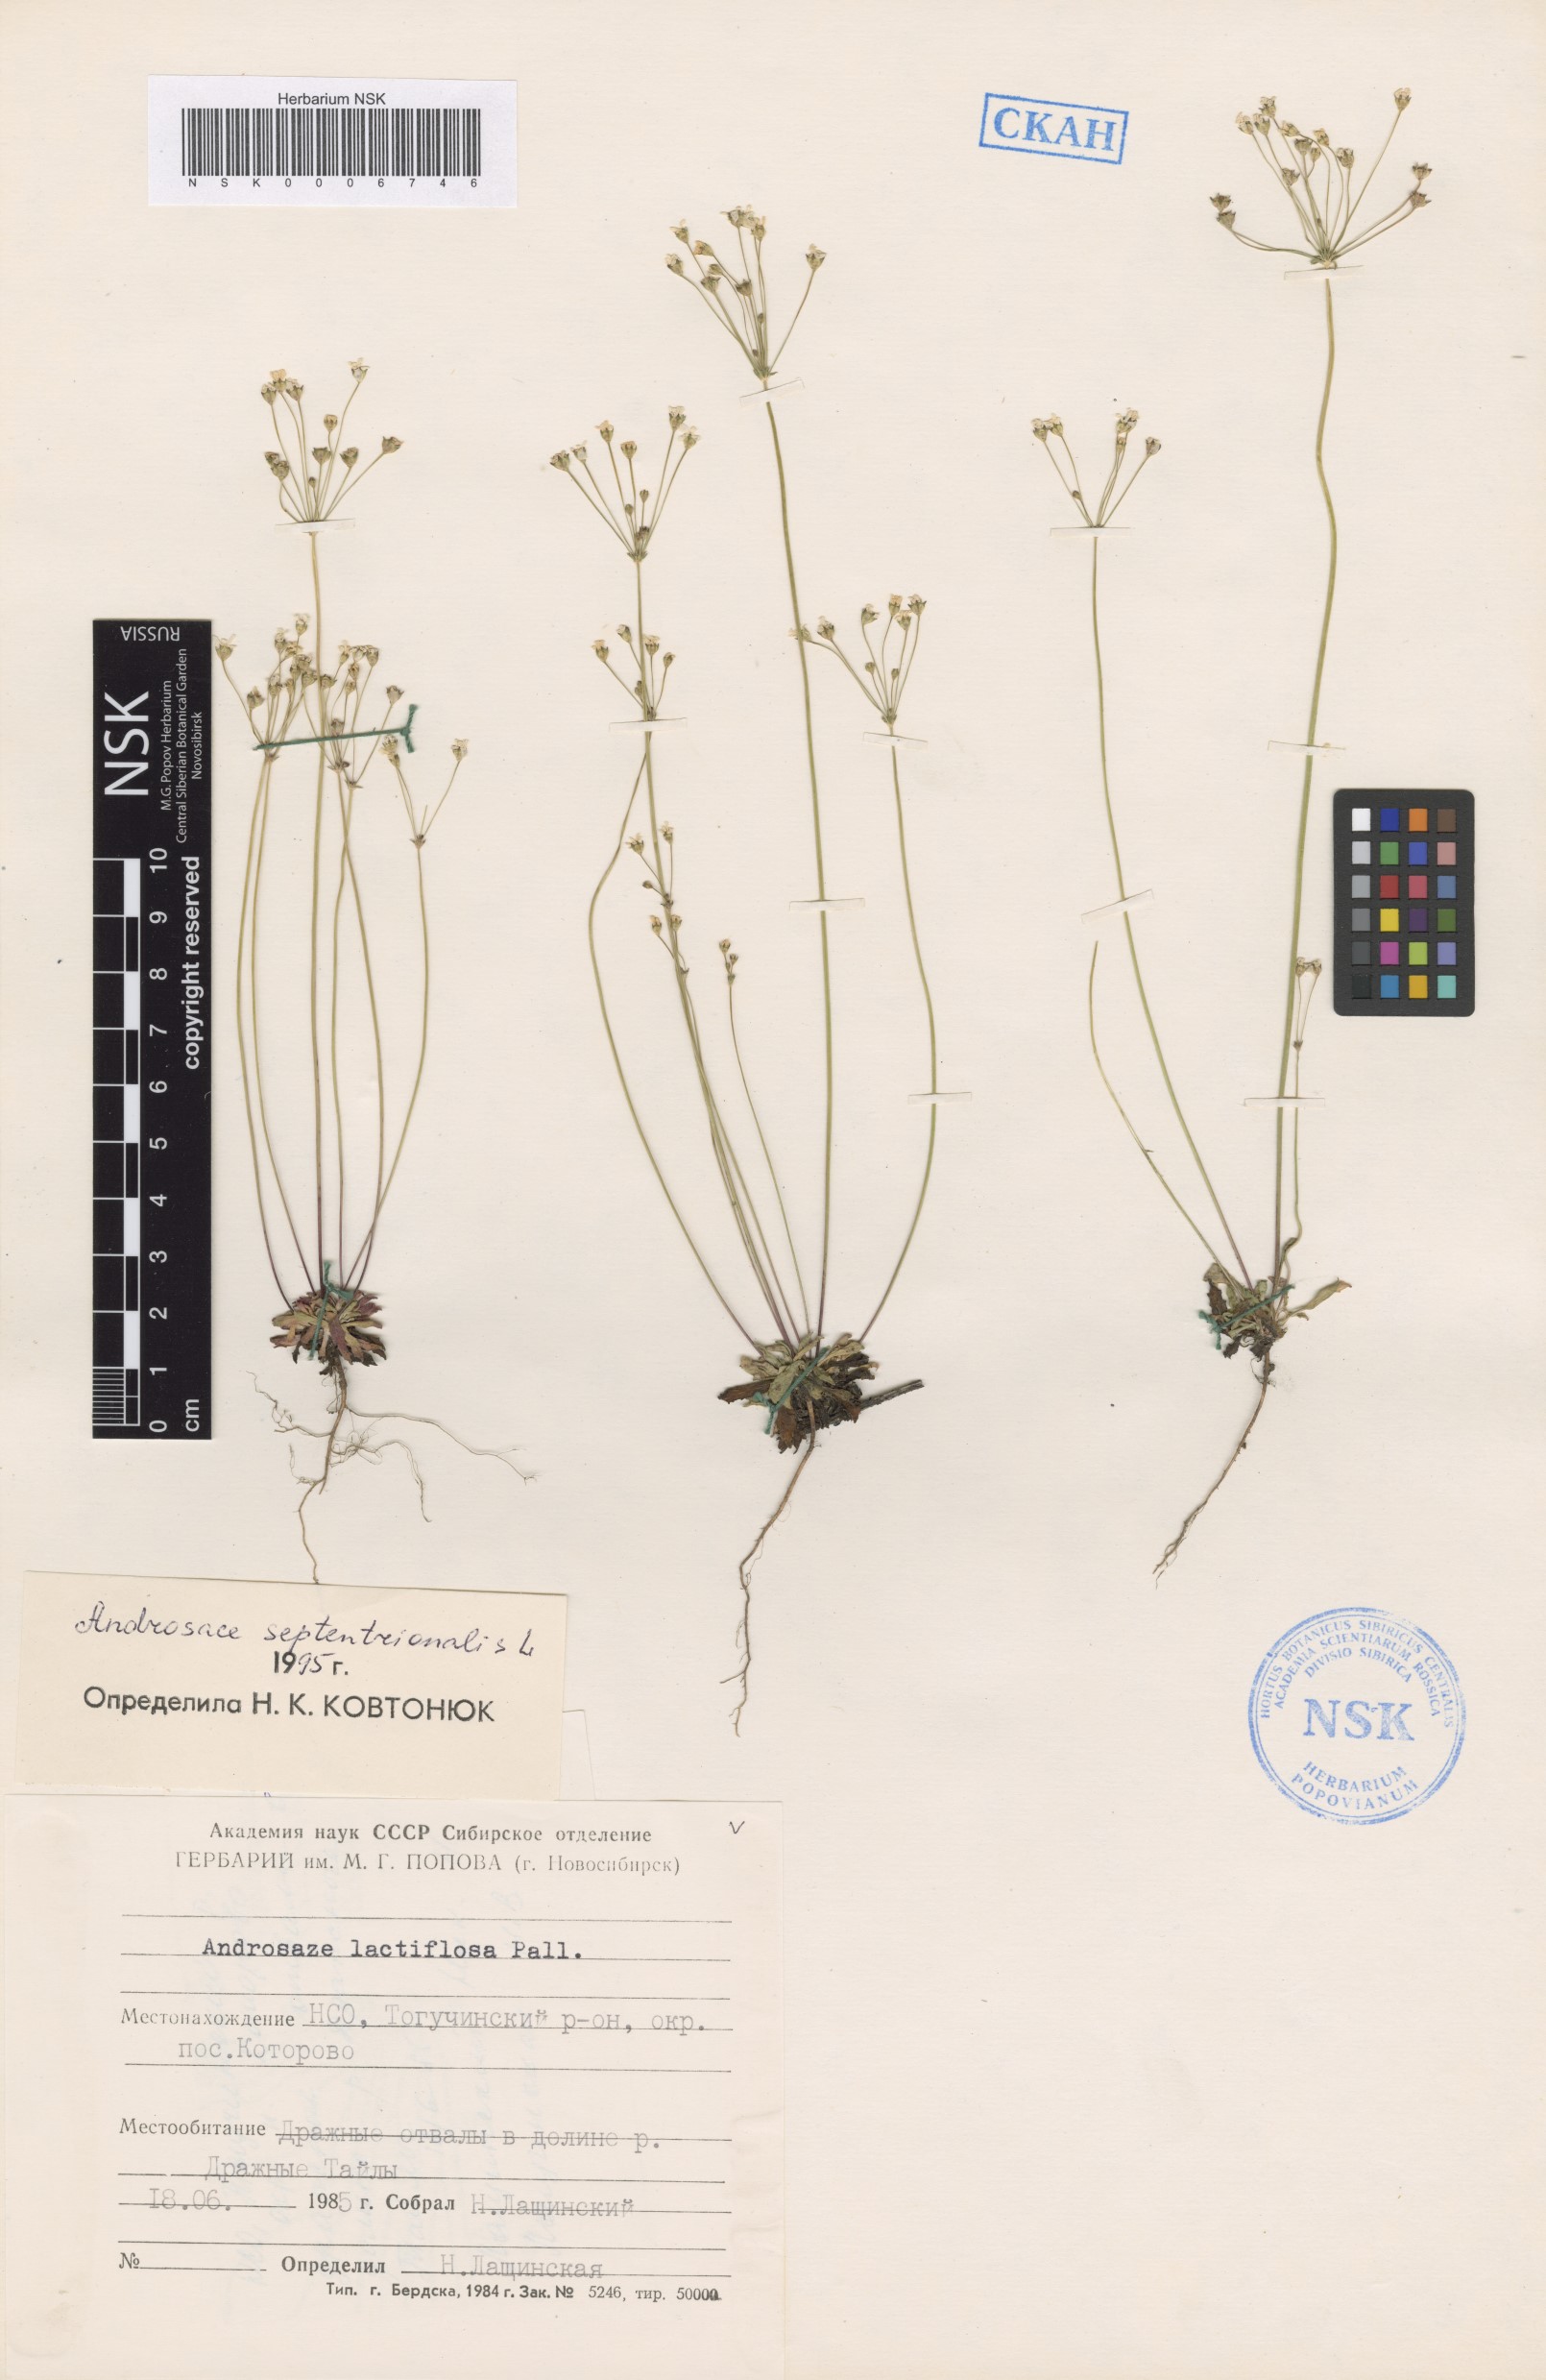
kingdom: Plantae
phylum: Tracheophyta
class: Magnoliopsida
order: Ericales
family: Primulaceae
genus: Androsace
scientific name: Androsace septentrionalis
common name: Hairy northern fairy-candelabra
